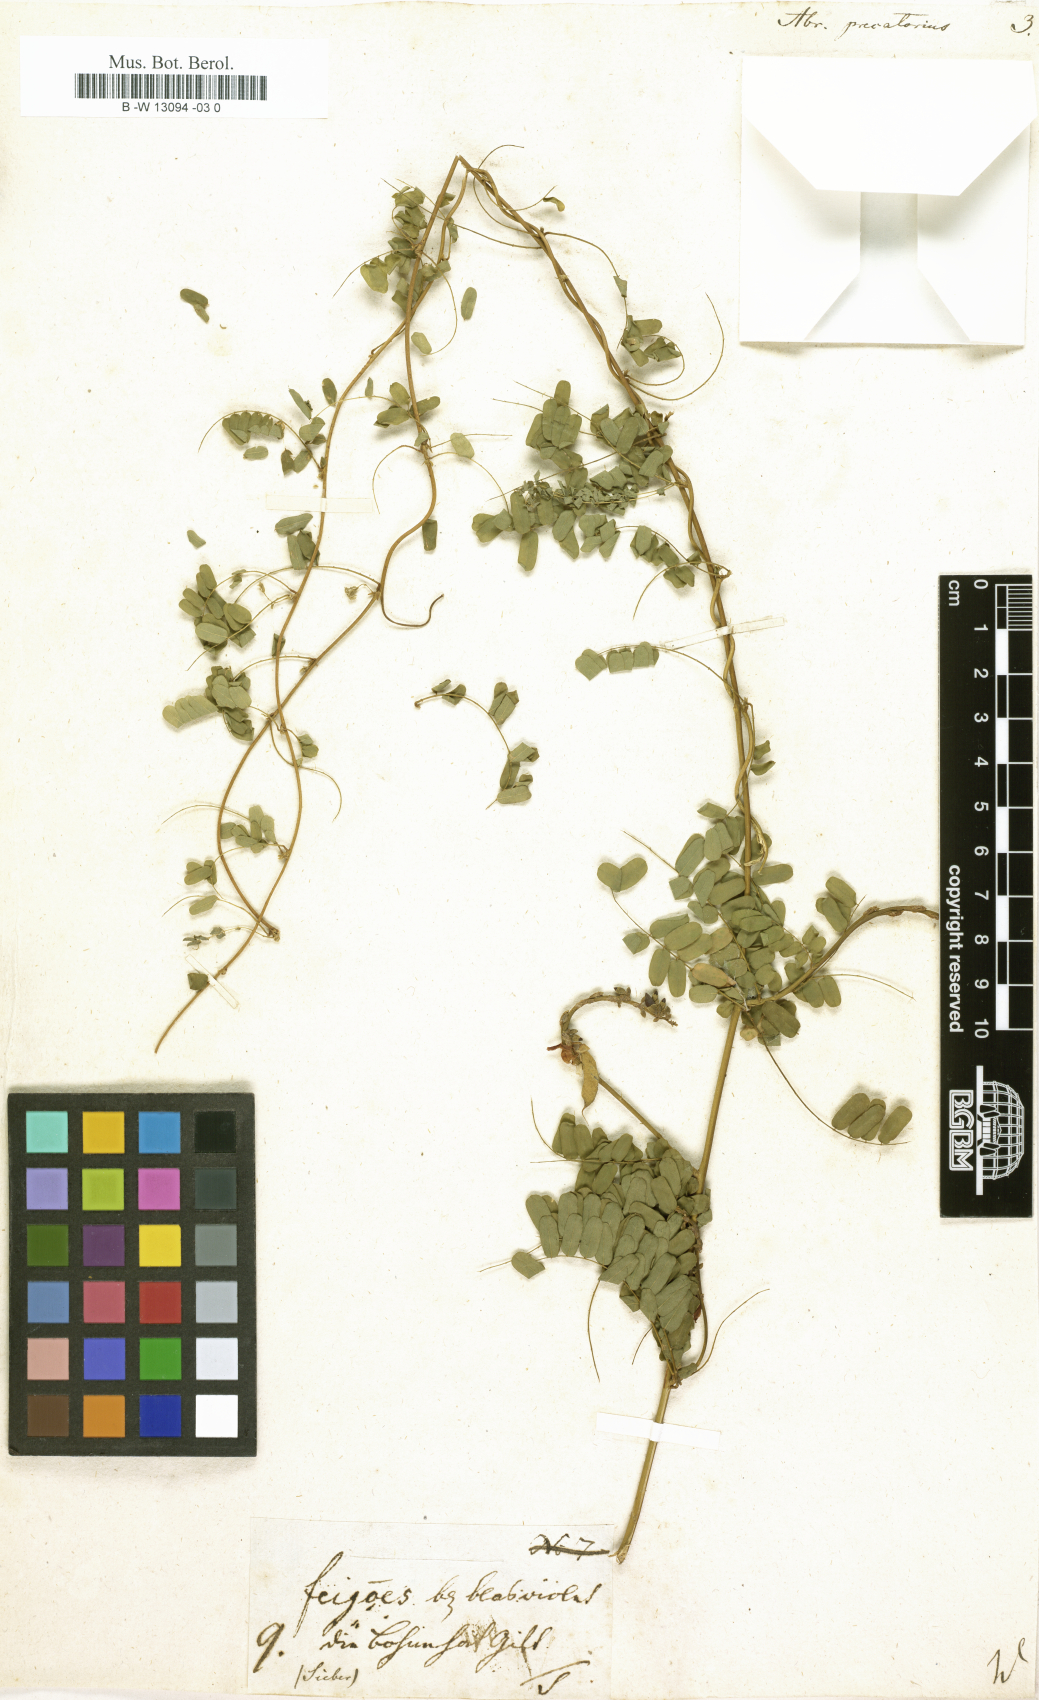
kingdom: Plantae
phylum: Tracheophyta
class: Magnoliopsida
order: Fabales
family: Fabaceae
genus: Abrus
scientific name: Abrus precatorius
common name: Rosarypea
